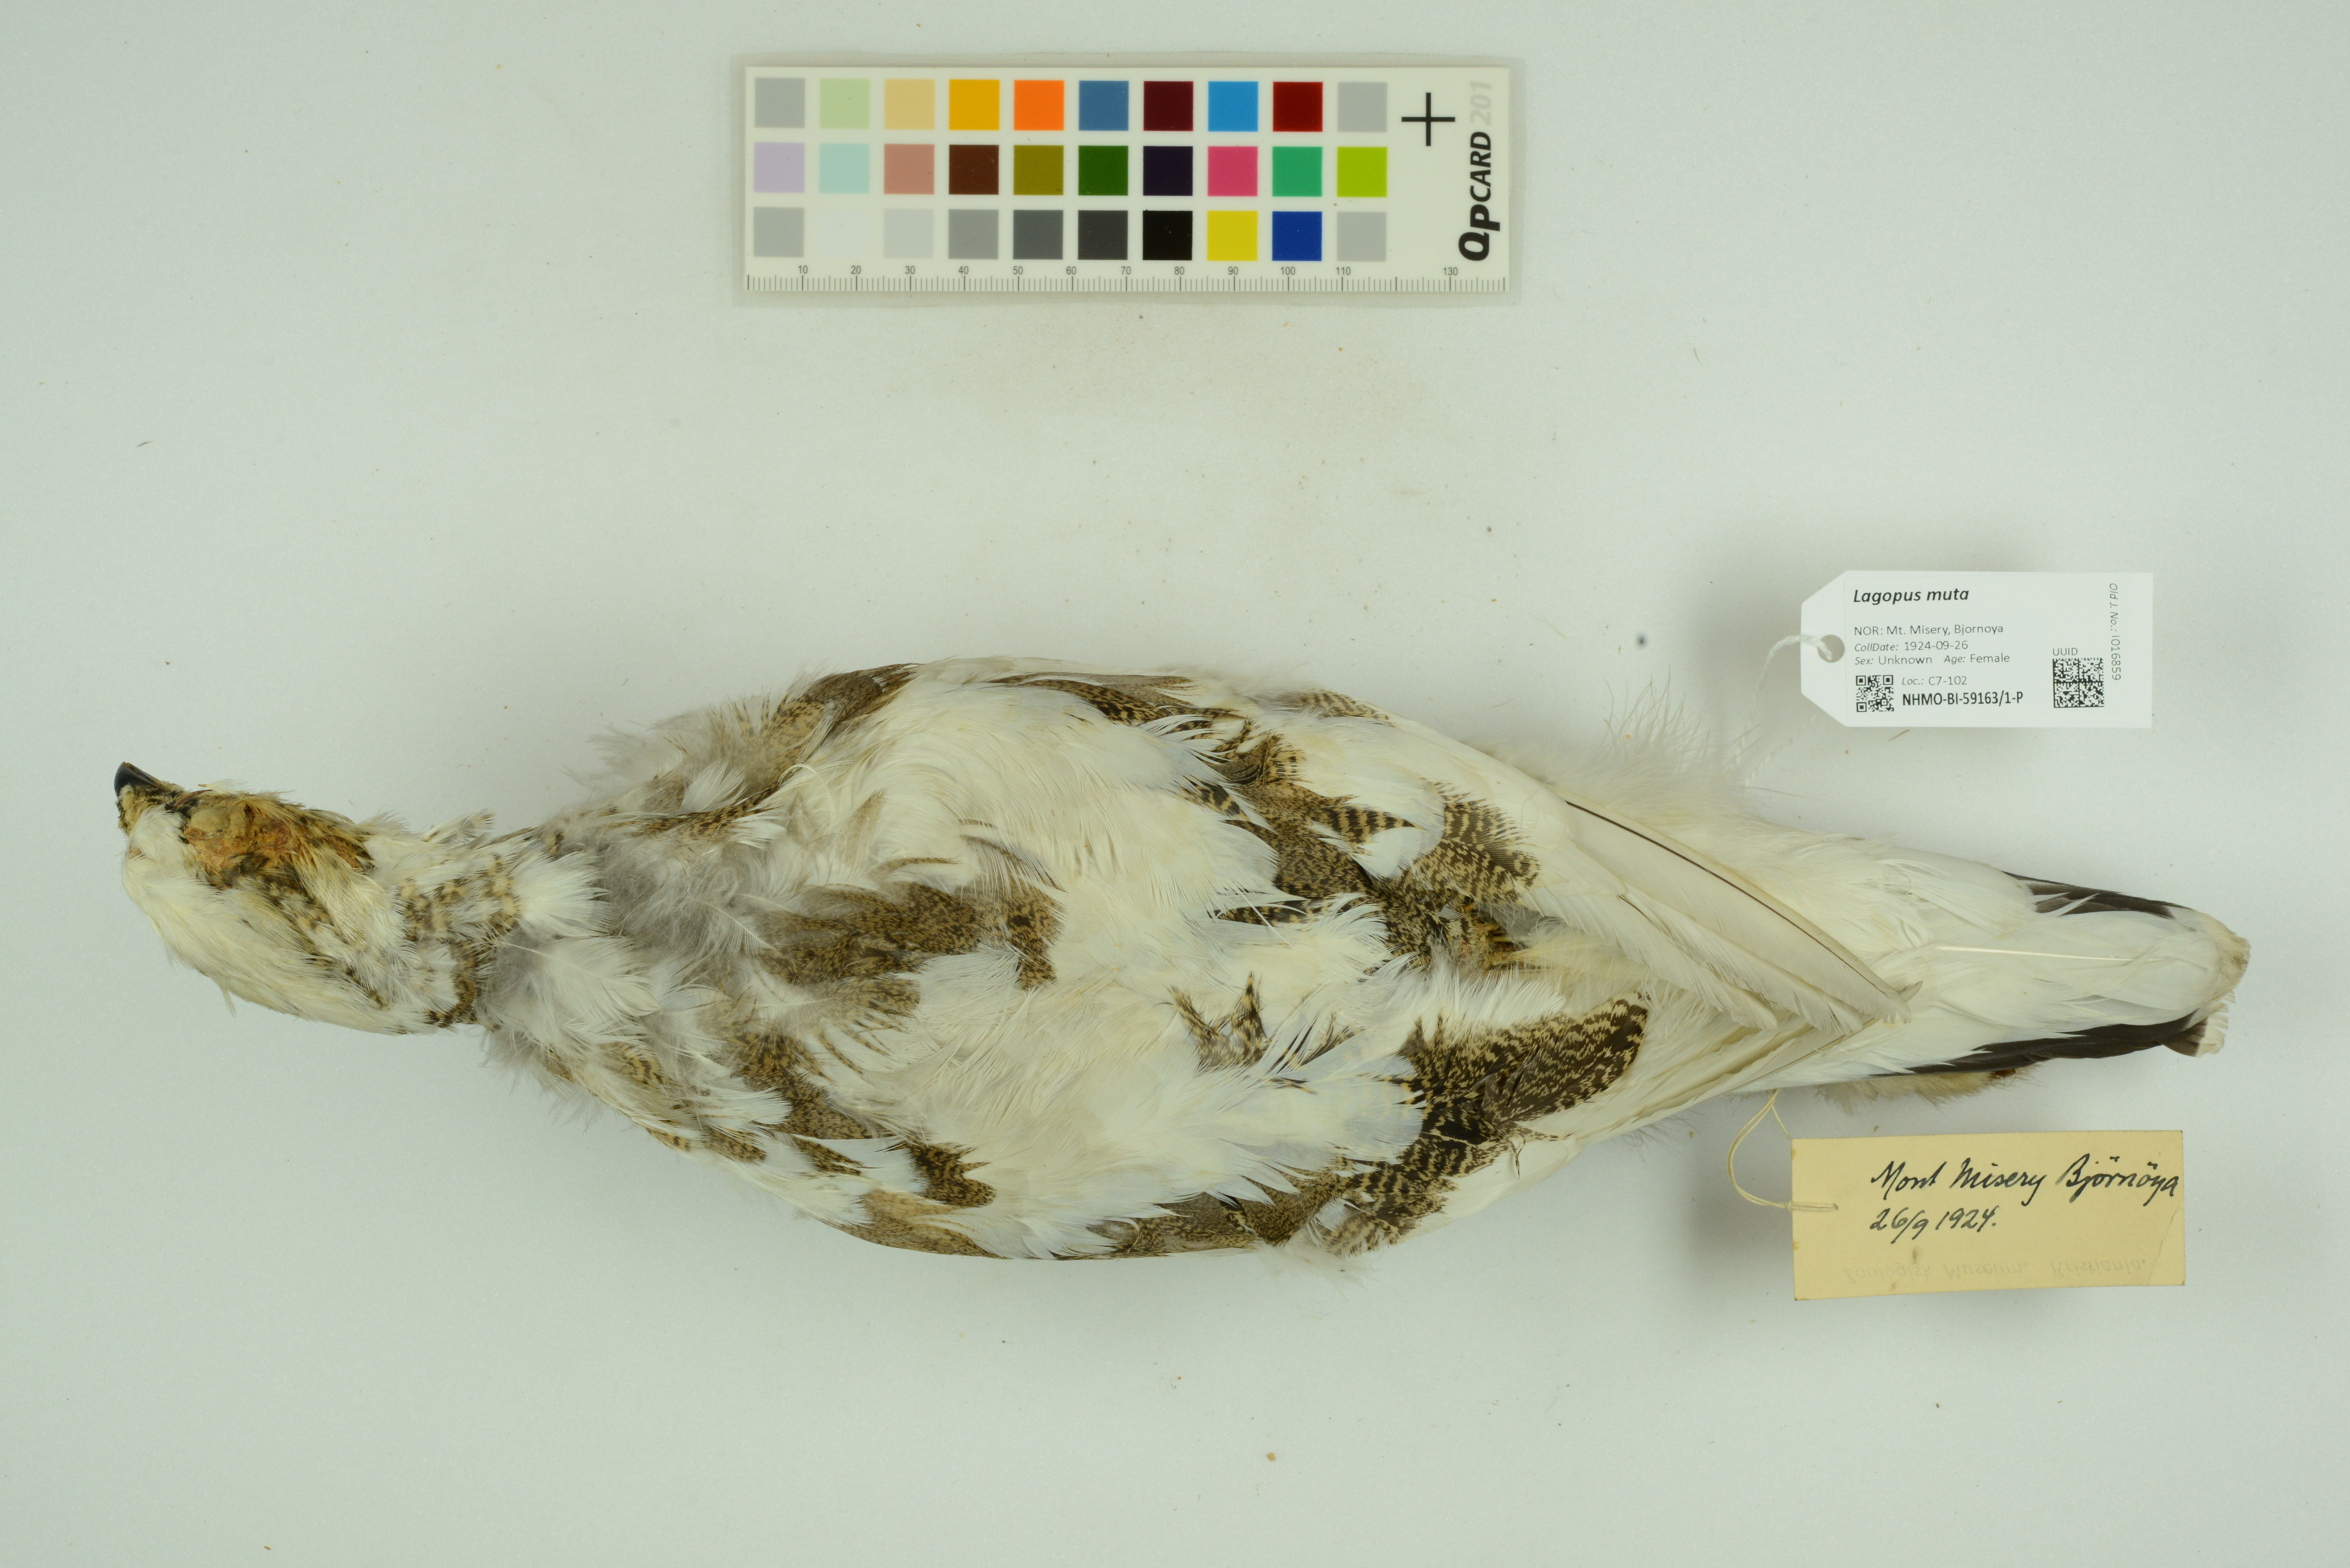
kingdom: Animalia
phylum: Chordata
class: Aves
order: Galliformes
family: Phasianidae
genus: Lagopus
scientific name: Lagopus muta
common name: Rock ptarmigan
